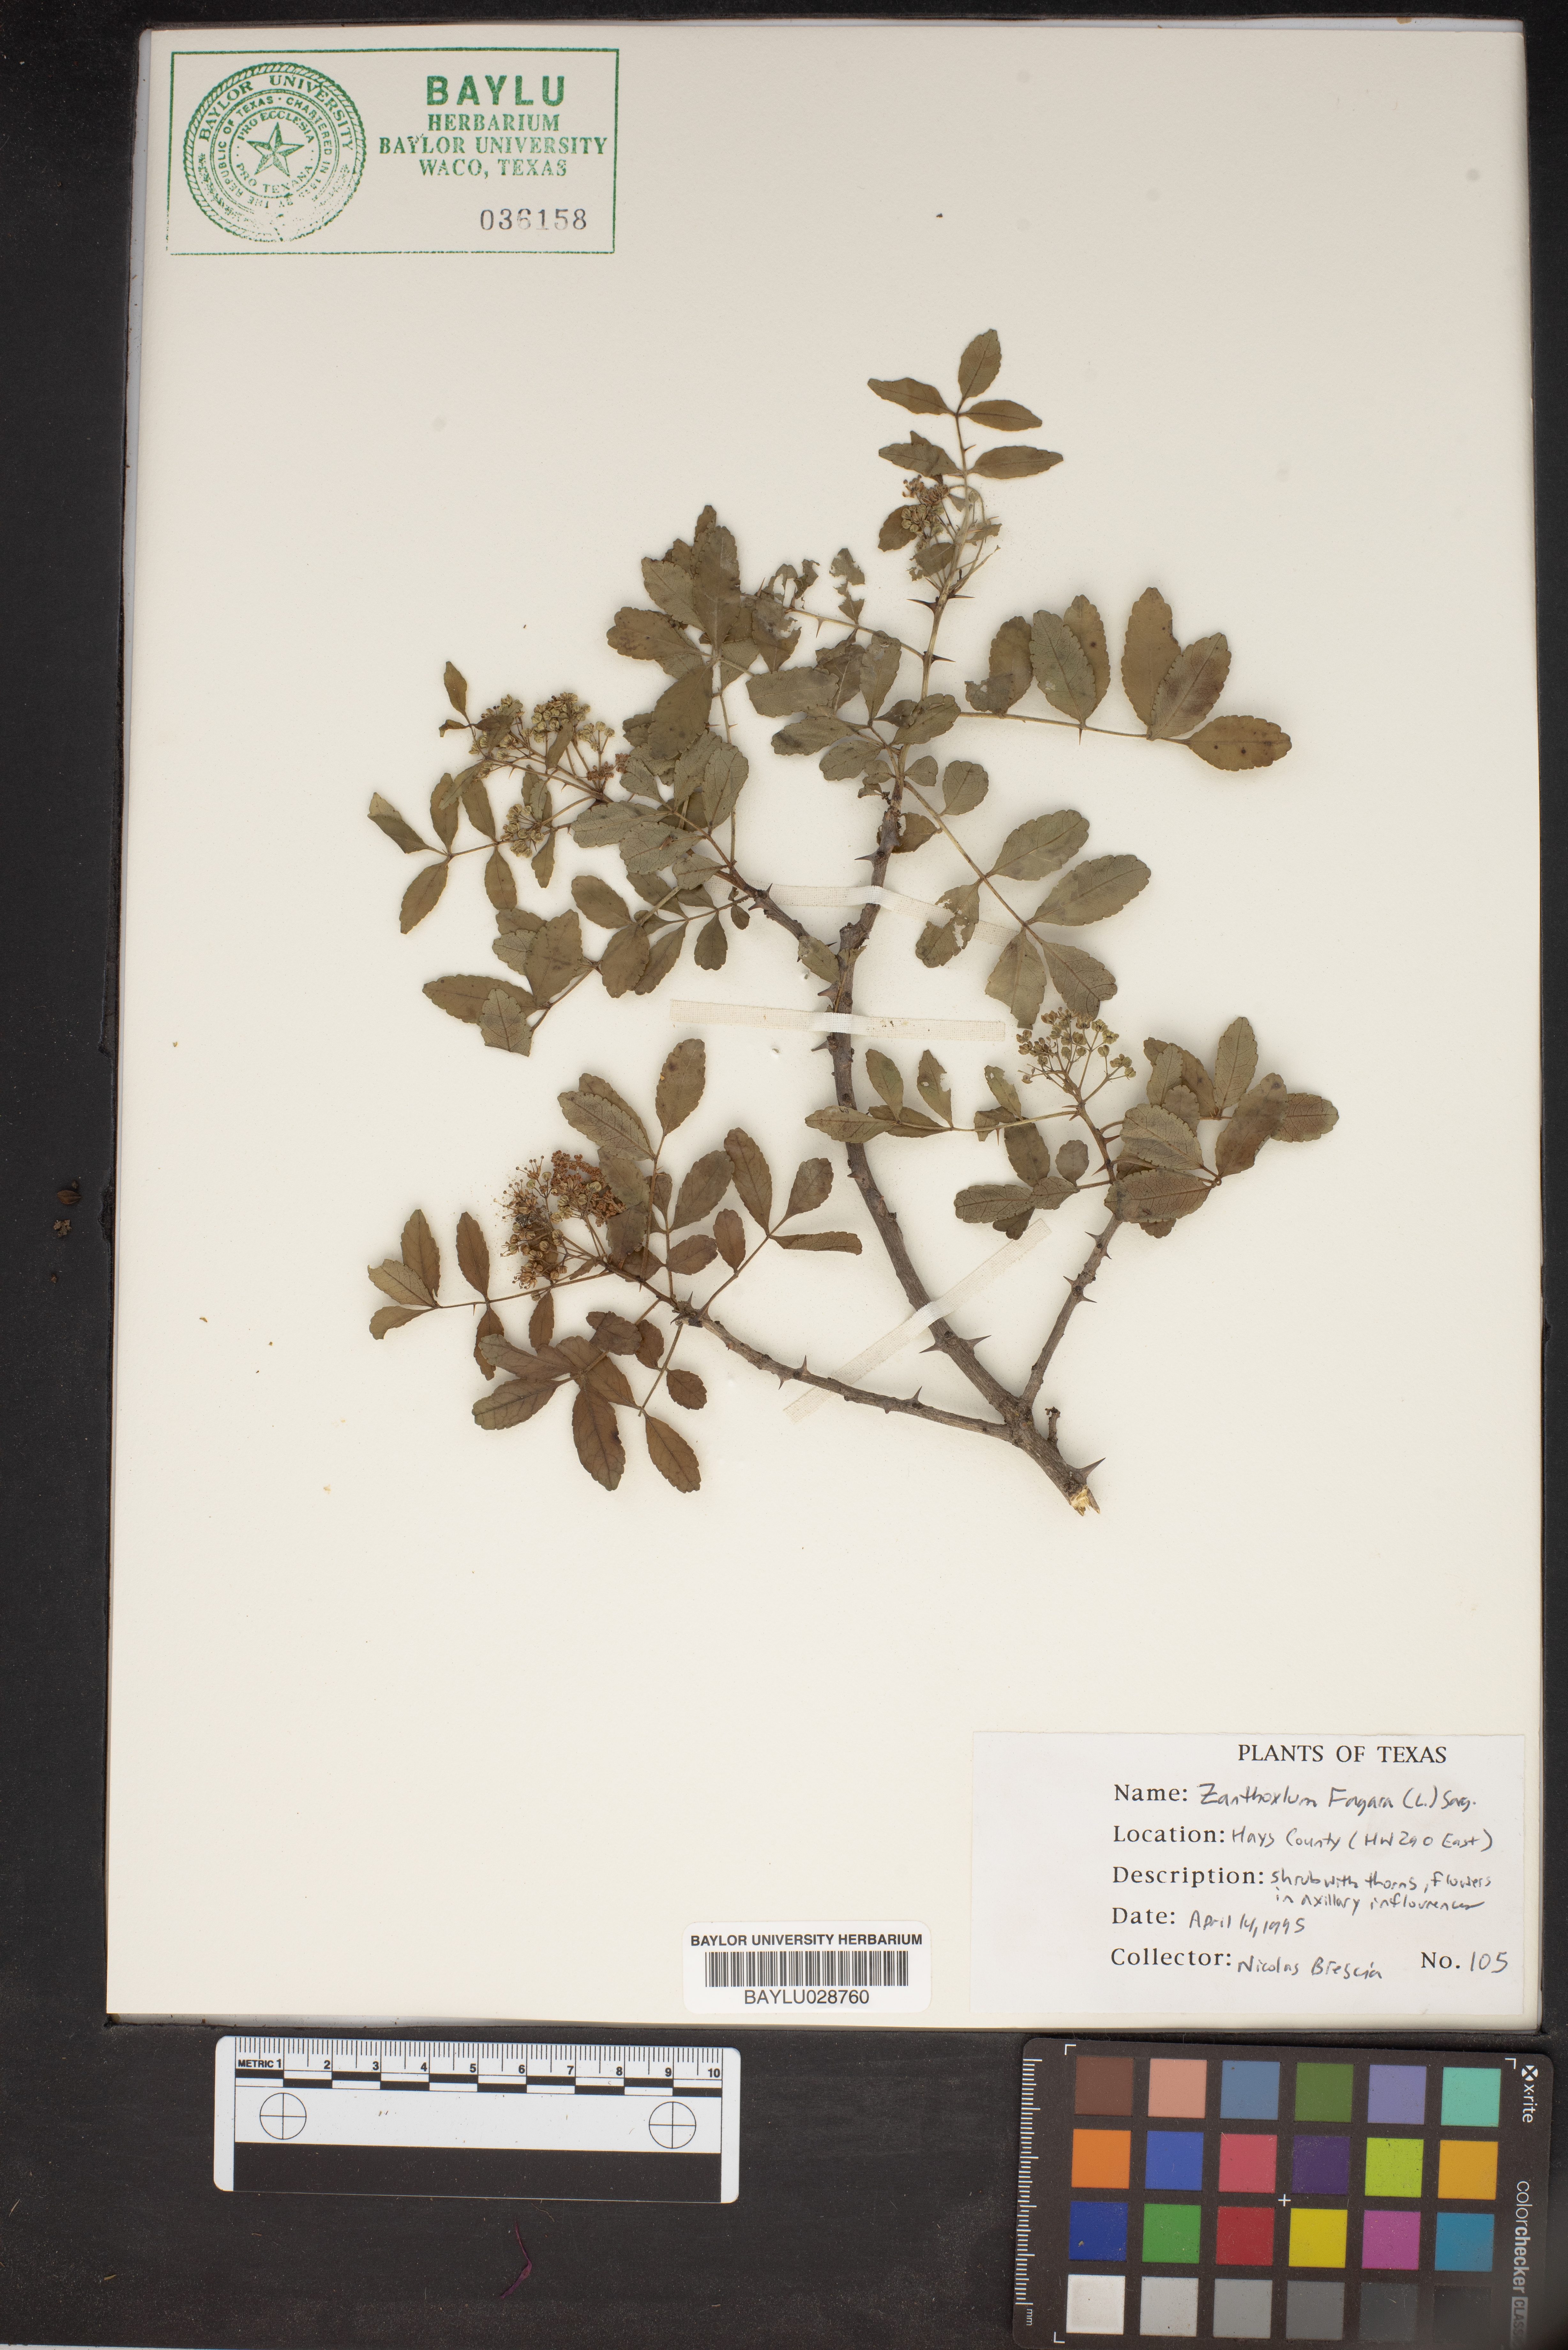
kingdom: Plantae
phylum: Tracheophyta
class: Magnoliopsida
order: Sapindales
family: Rutaceae
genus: Zanthoxylum
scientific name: Zanthoxylum fagara
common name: Lime prickly-ash
